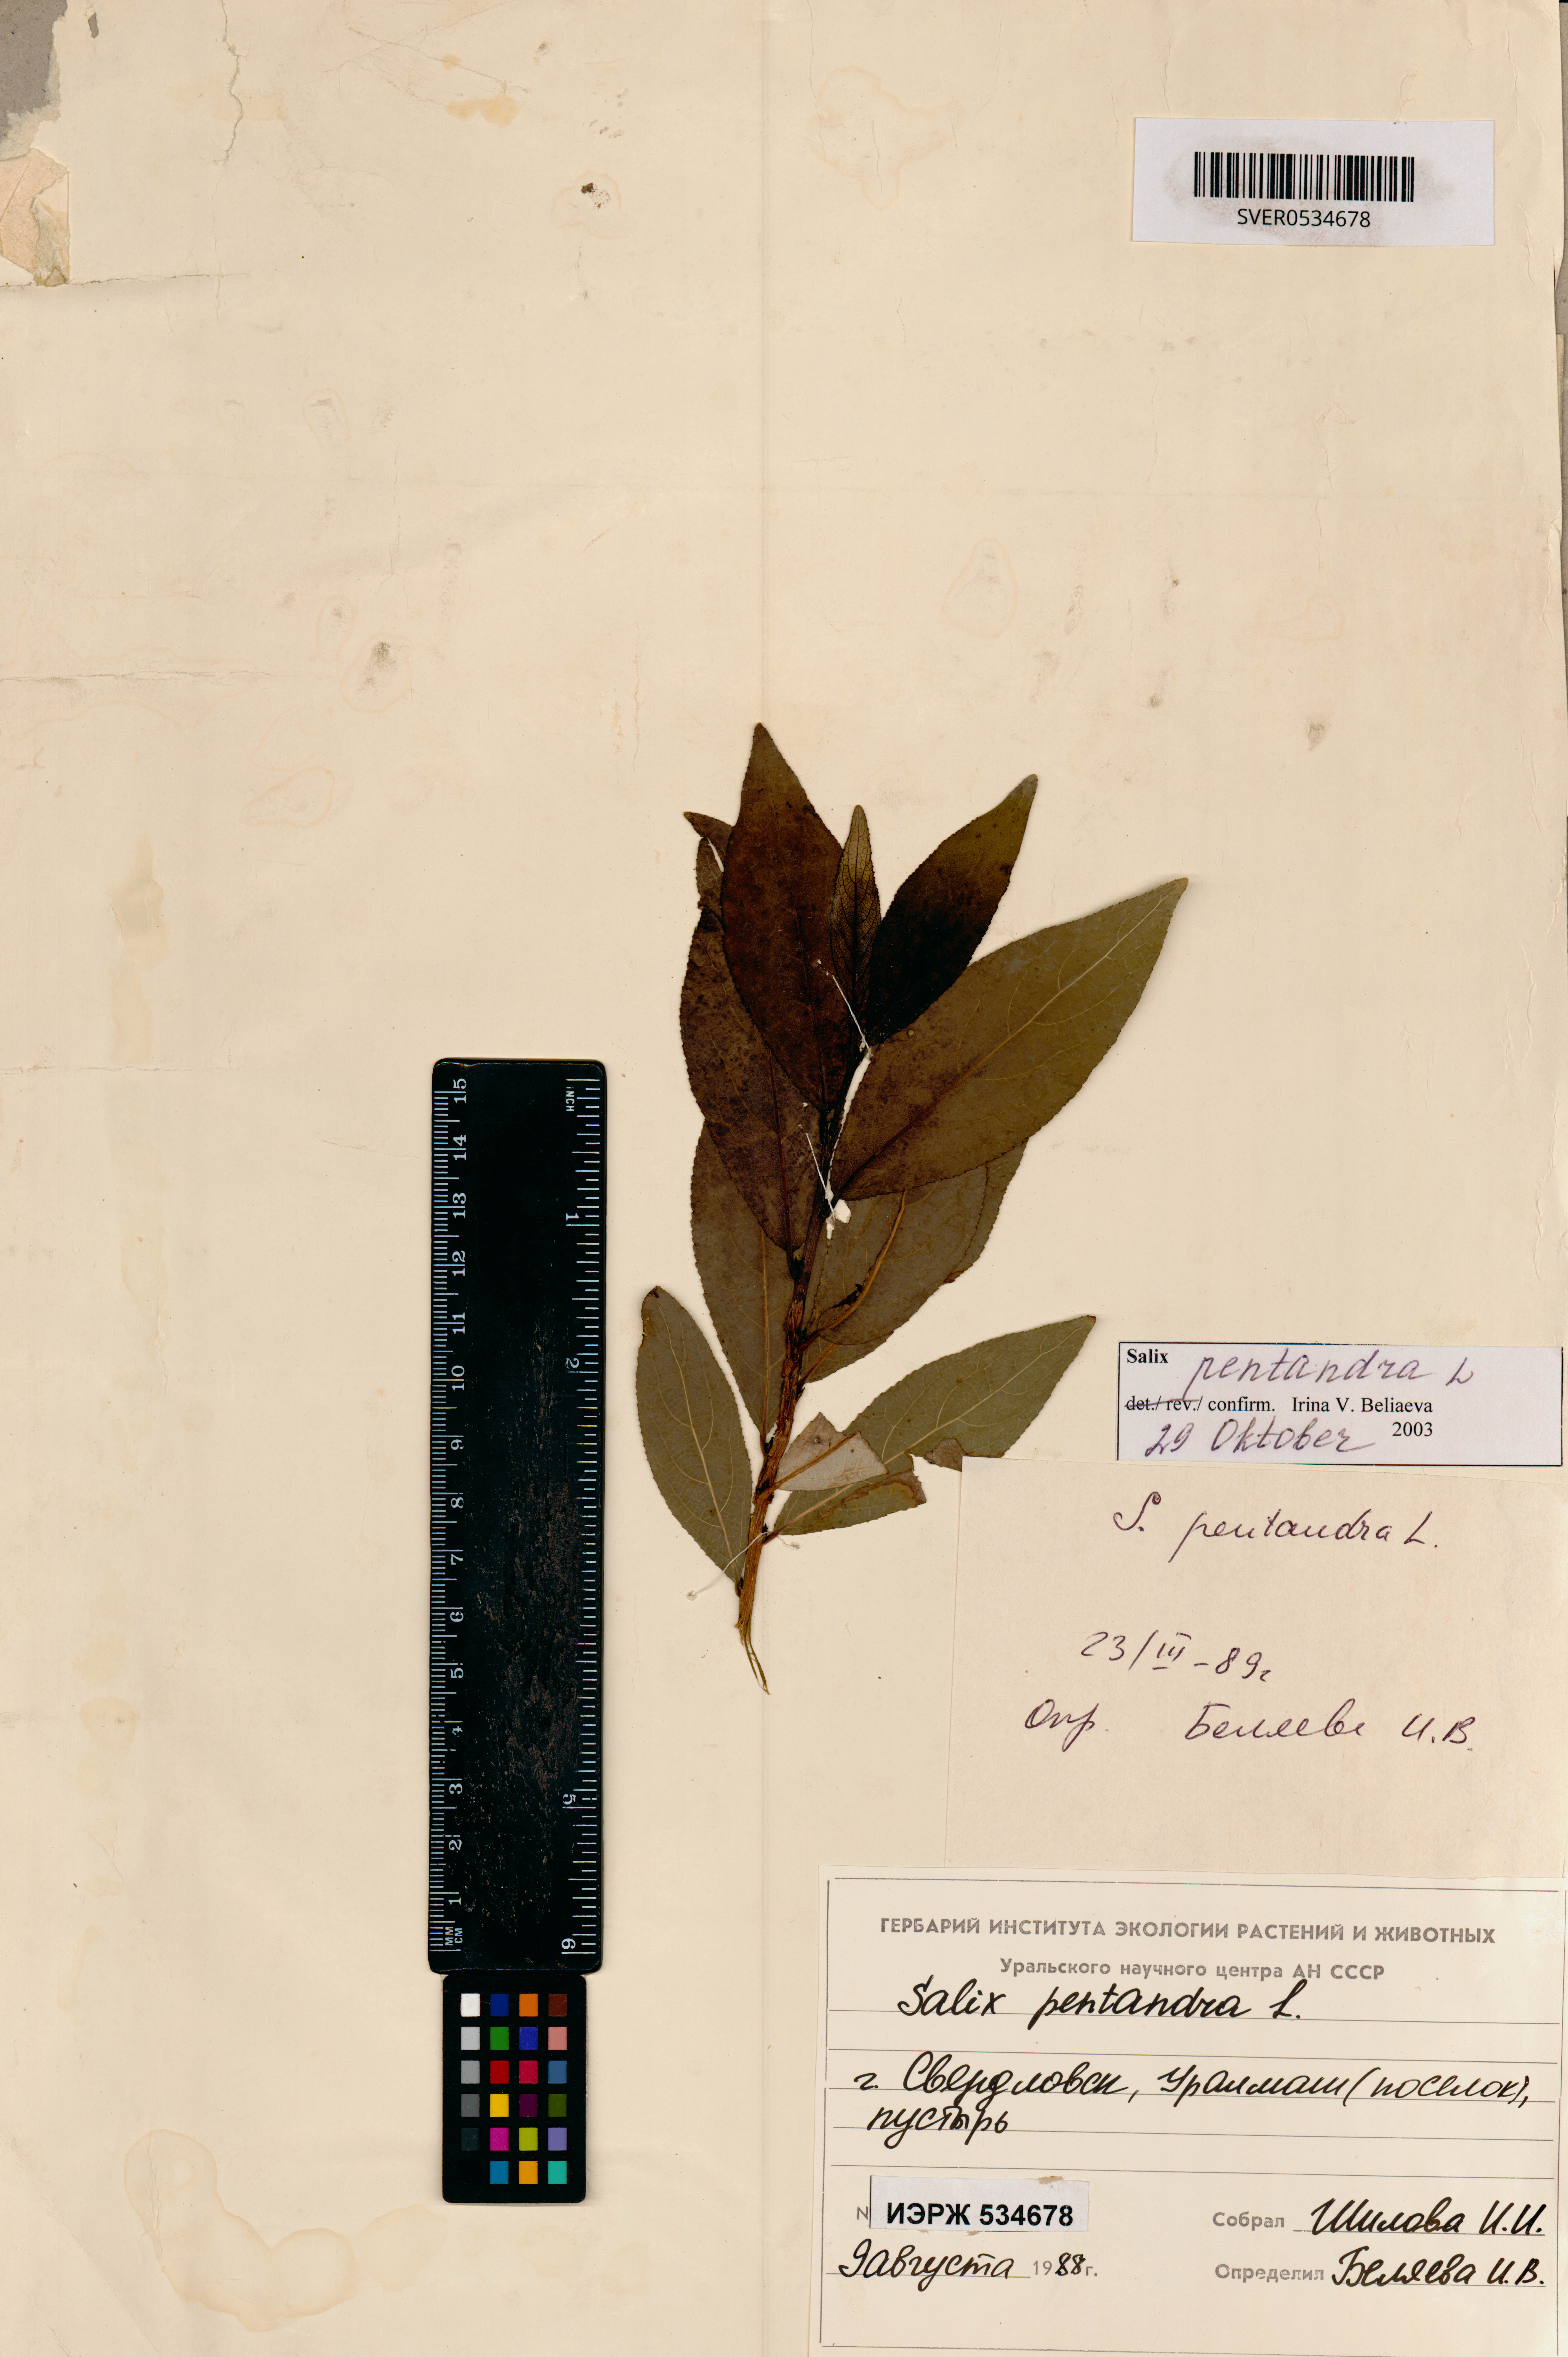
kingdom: Plantae
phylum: Tracheophyta
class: Magnoliopsida
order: Malpighiales
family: Salicaceae
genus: Salix
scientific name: Salix pentandra
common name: Bay willow
